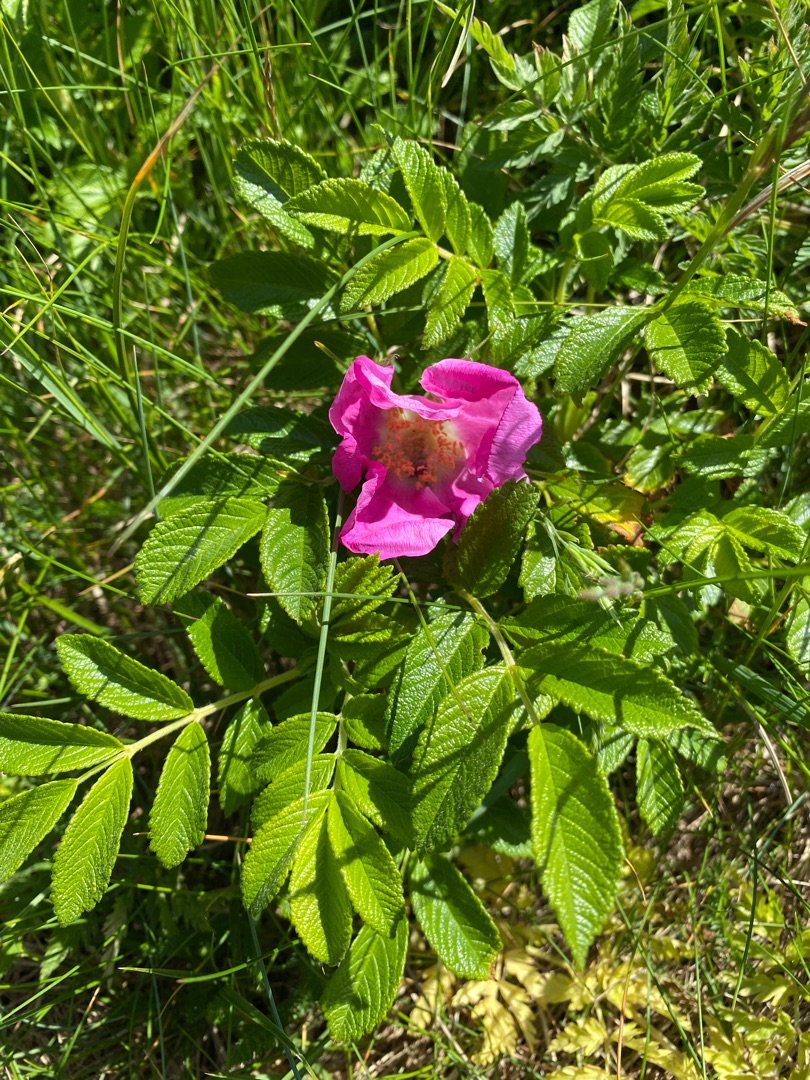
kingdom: Plantae
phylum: Tracheophyta
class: Magnoliopsida
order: Rosales
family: Rosaceae
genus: Rosa
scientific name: Rosa rugosa
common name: Rynket rose
